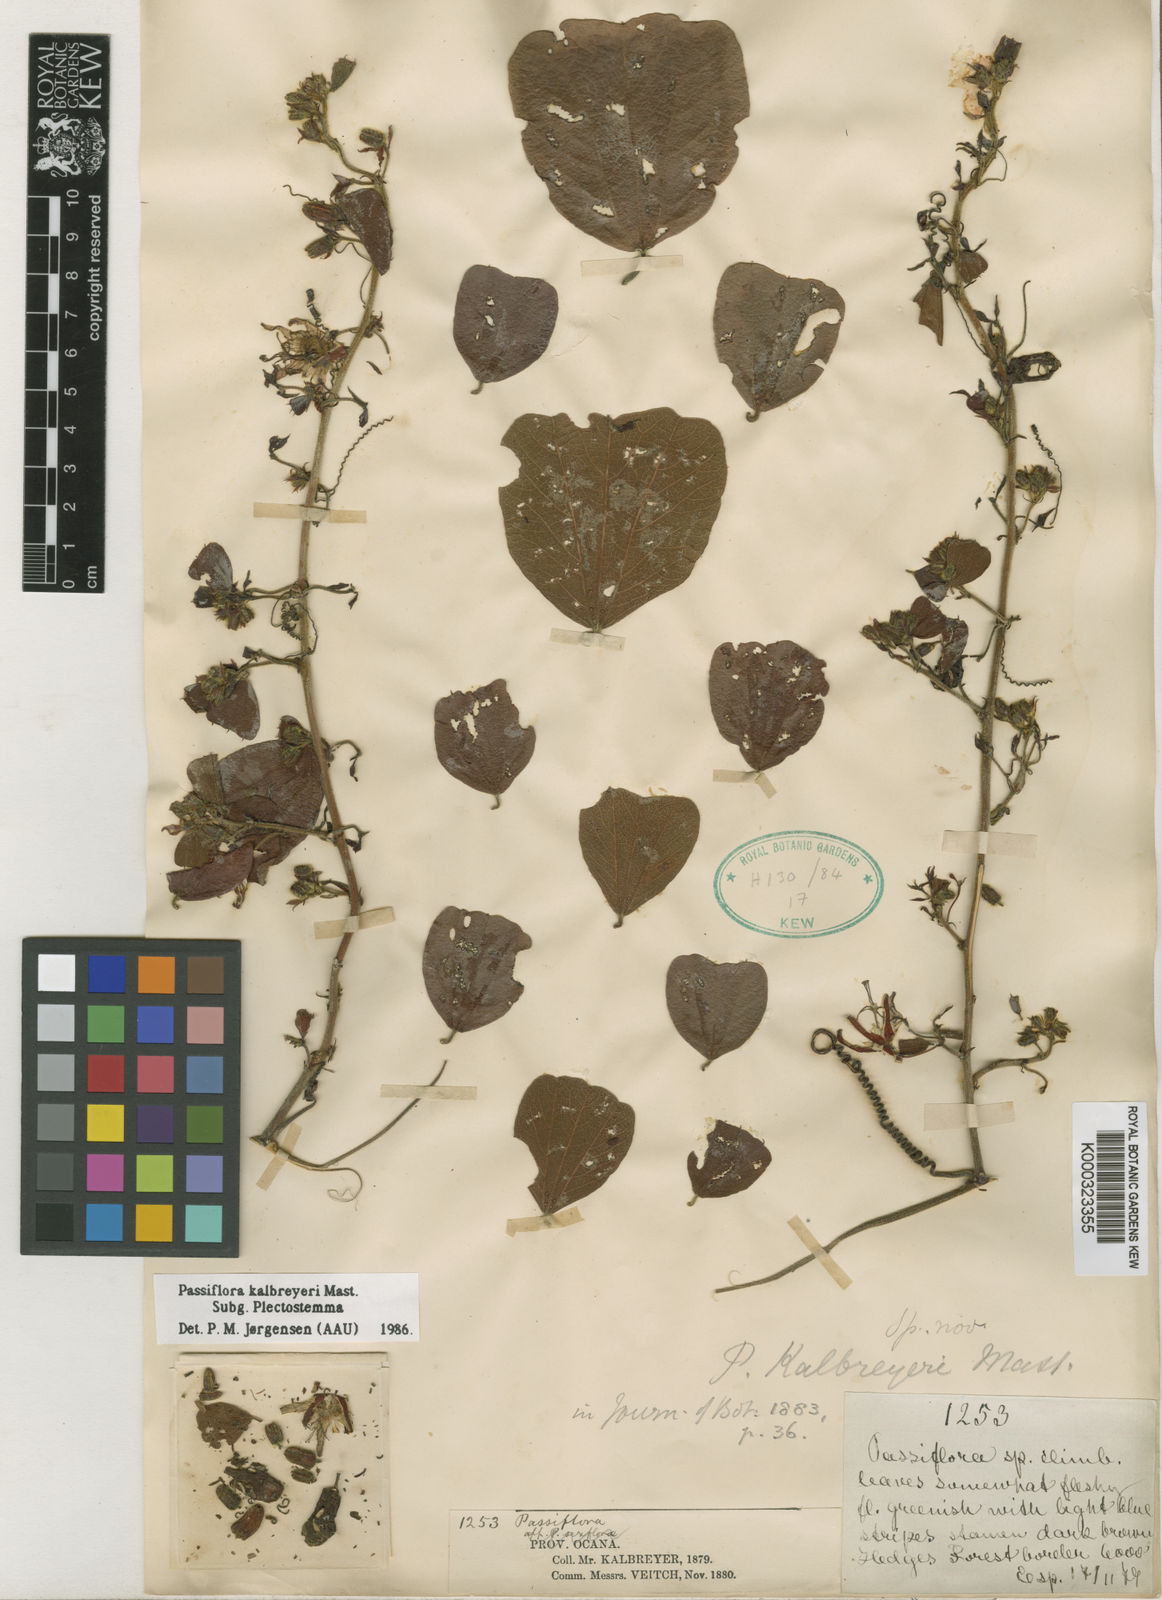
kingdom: Plantae
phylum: Tracheophyta
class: Magnoliopsida
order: Malpighiales
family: Passifloraceae
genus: Passiflora
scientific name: Passiflora kalbreyeri
